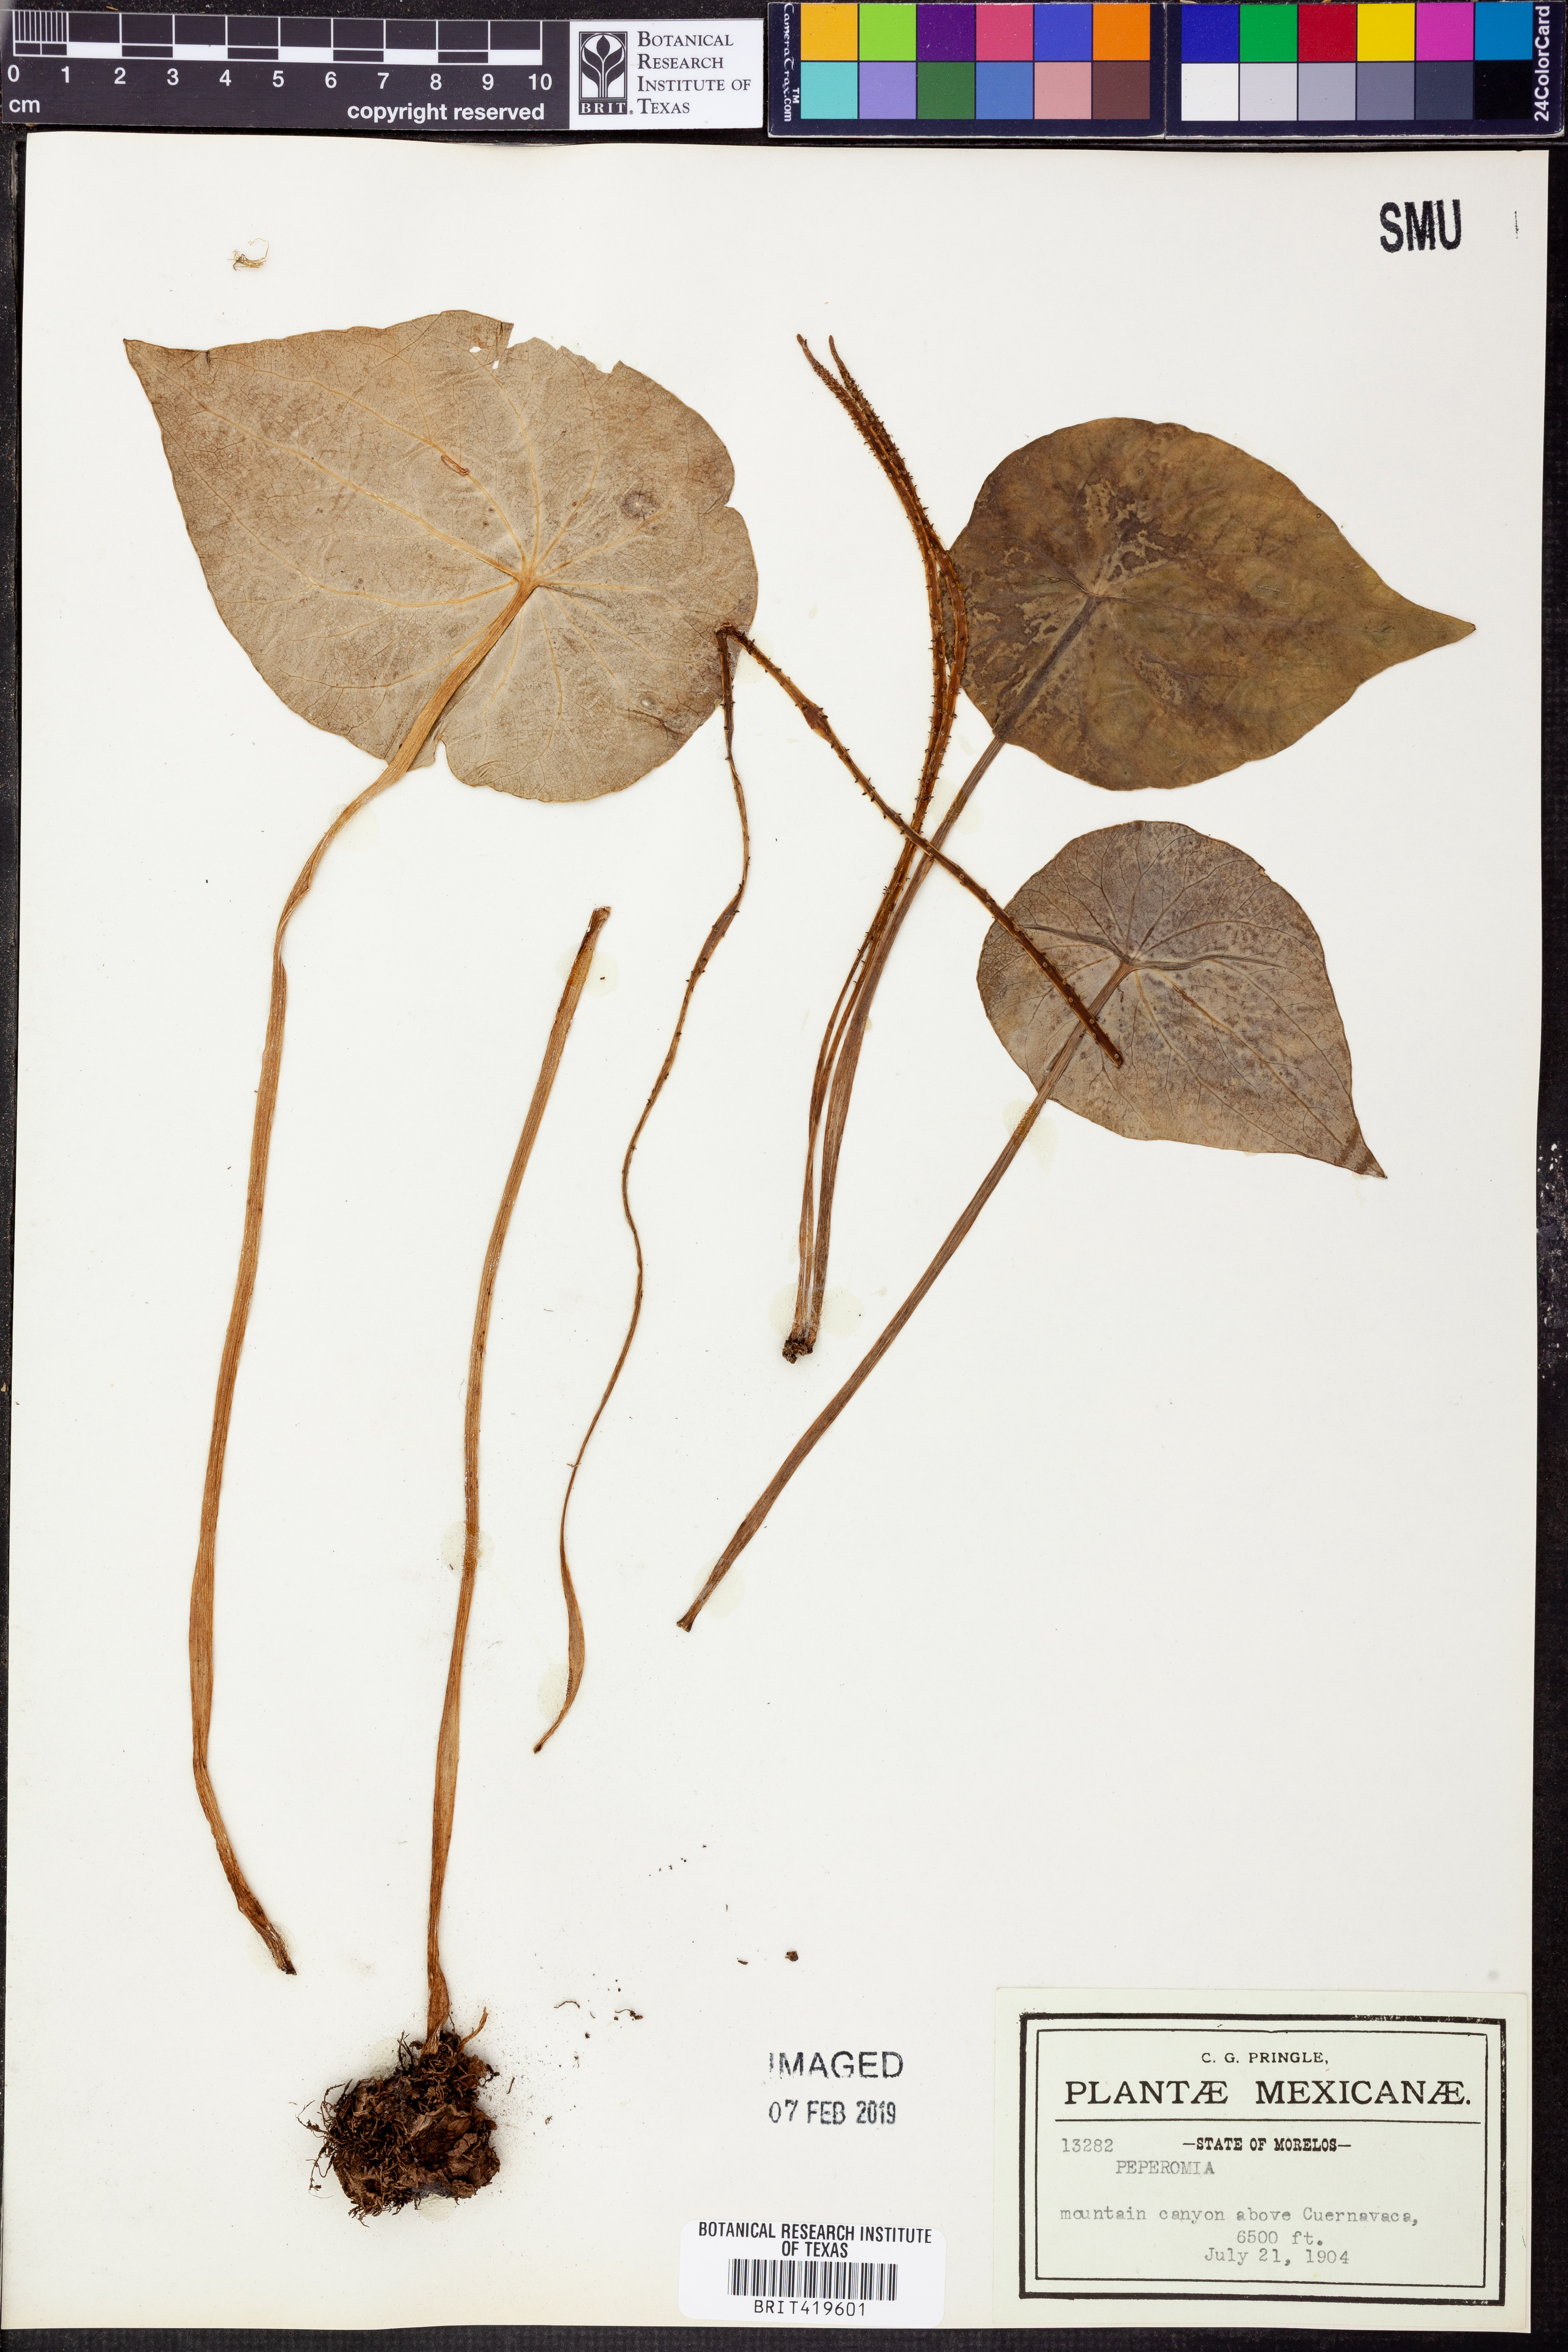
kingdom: Plantae
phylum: Tracheophyta
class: Magnoliopsida
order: Piperales
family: Piperaceae
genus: Peperomia
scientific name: Peperomia
